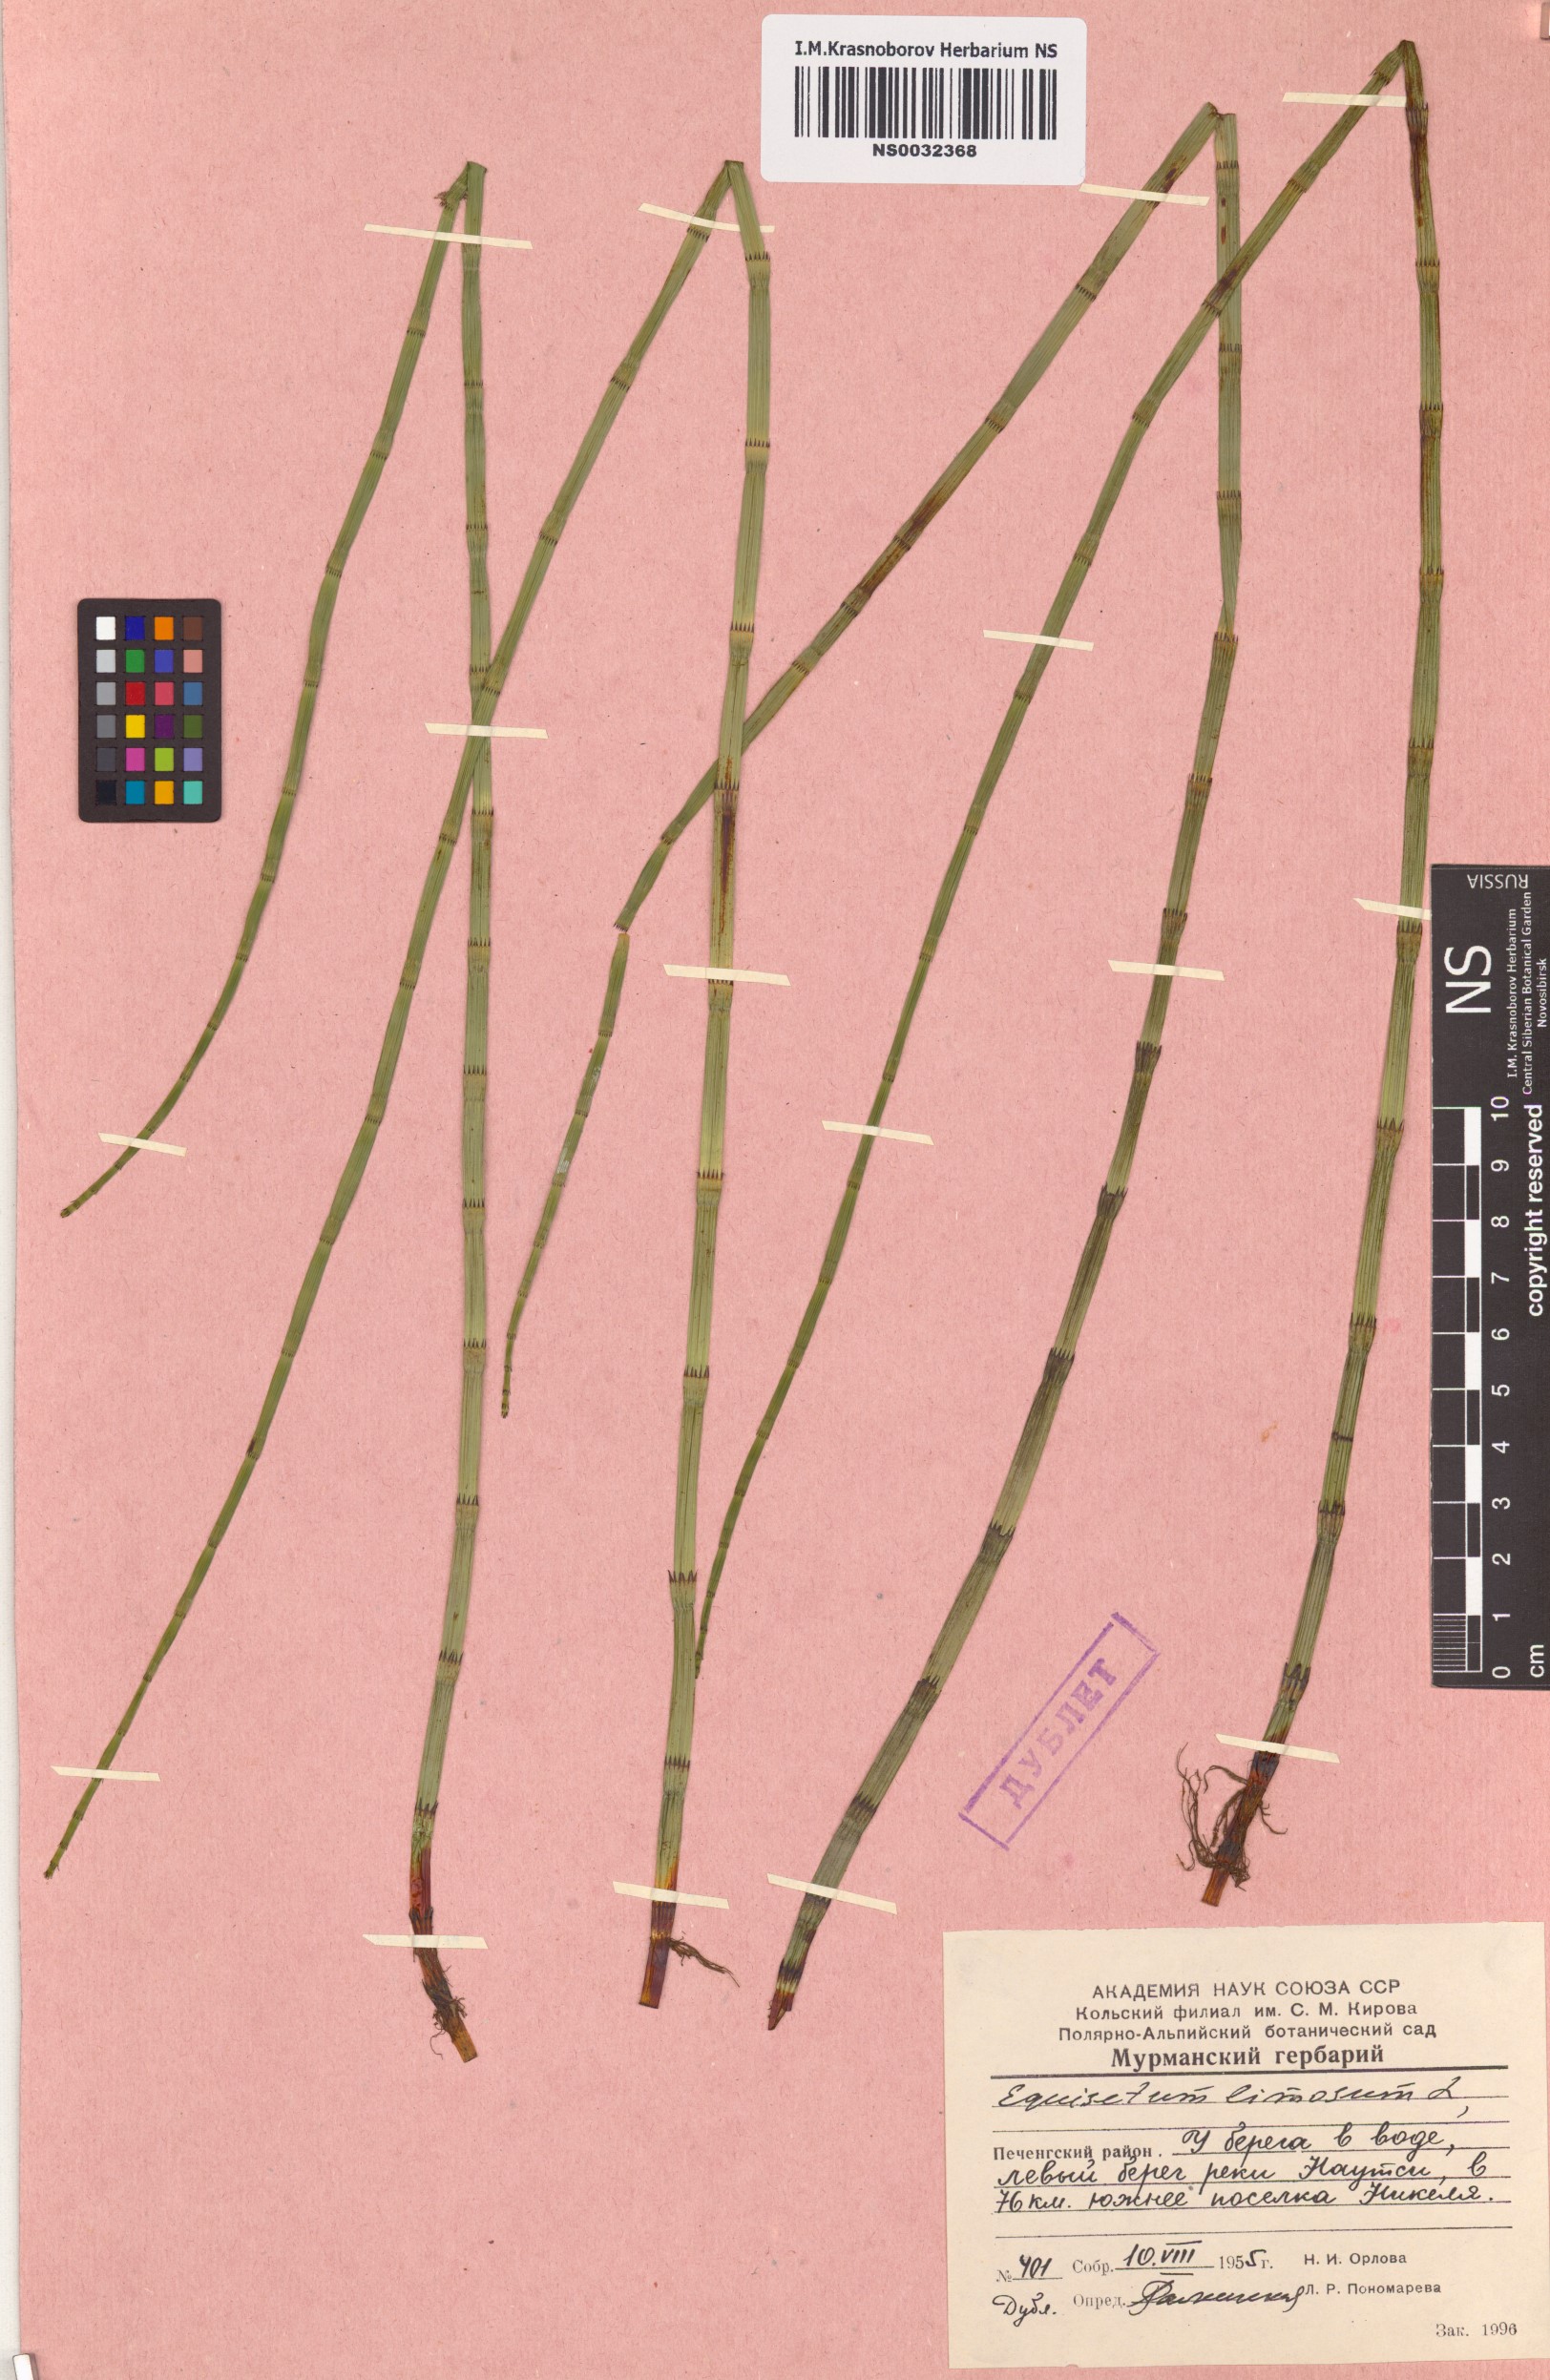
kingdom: Plantae
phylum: Tracheophyta
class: Polypodiopsida
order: Equisetales
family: Equisetaceae
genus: Equisetum
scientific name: Equisetum fluviatile
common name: Water horsetail
